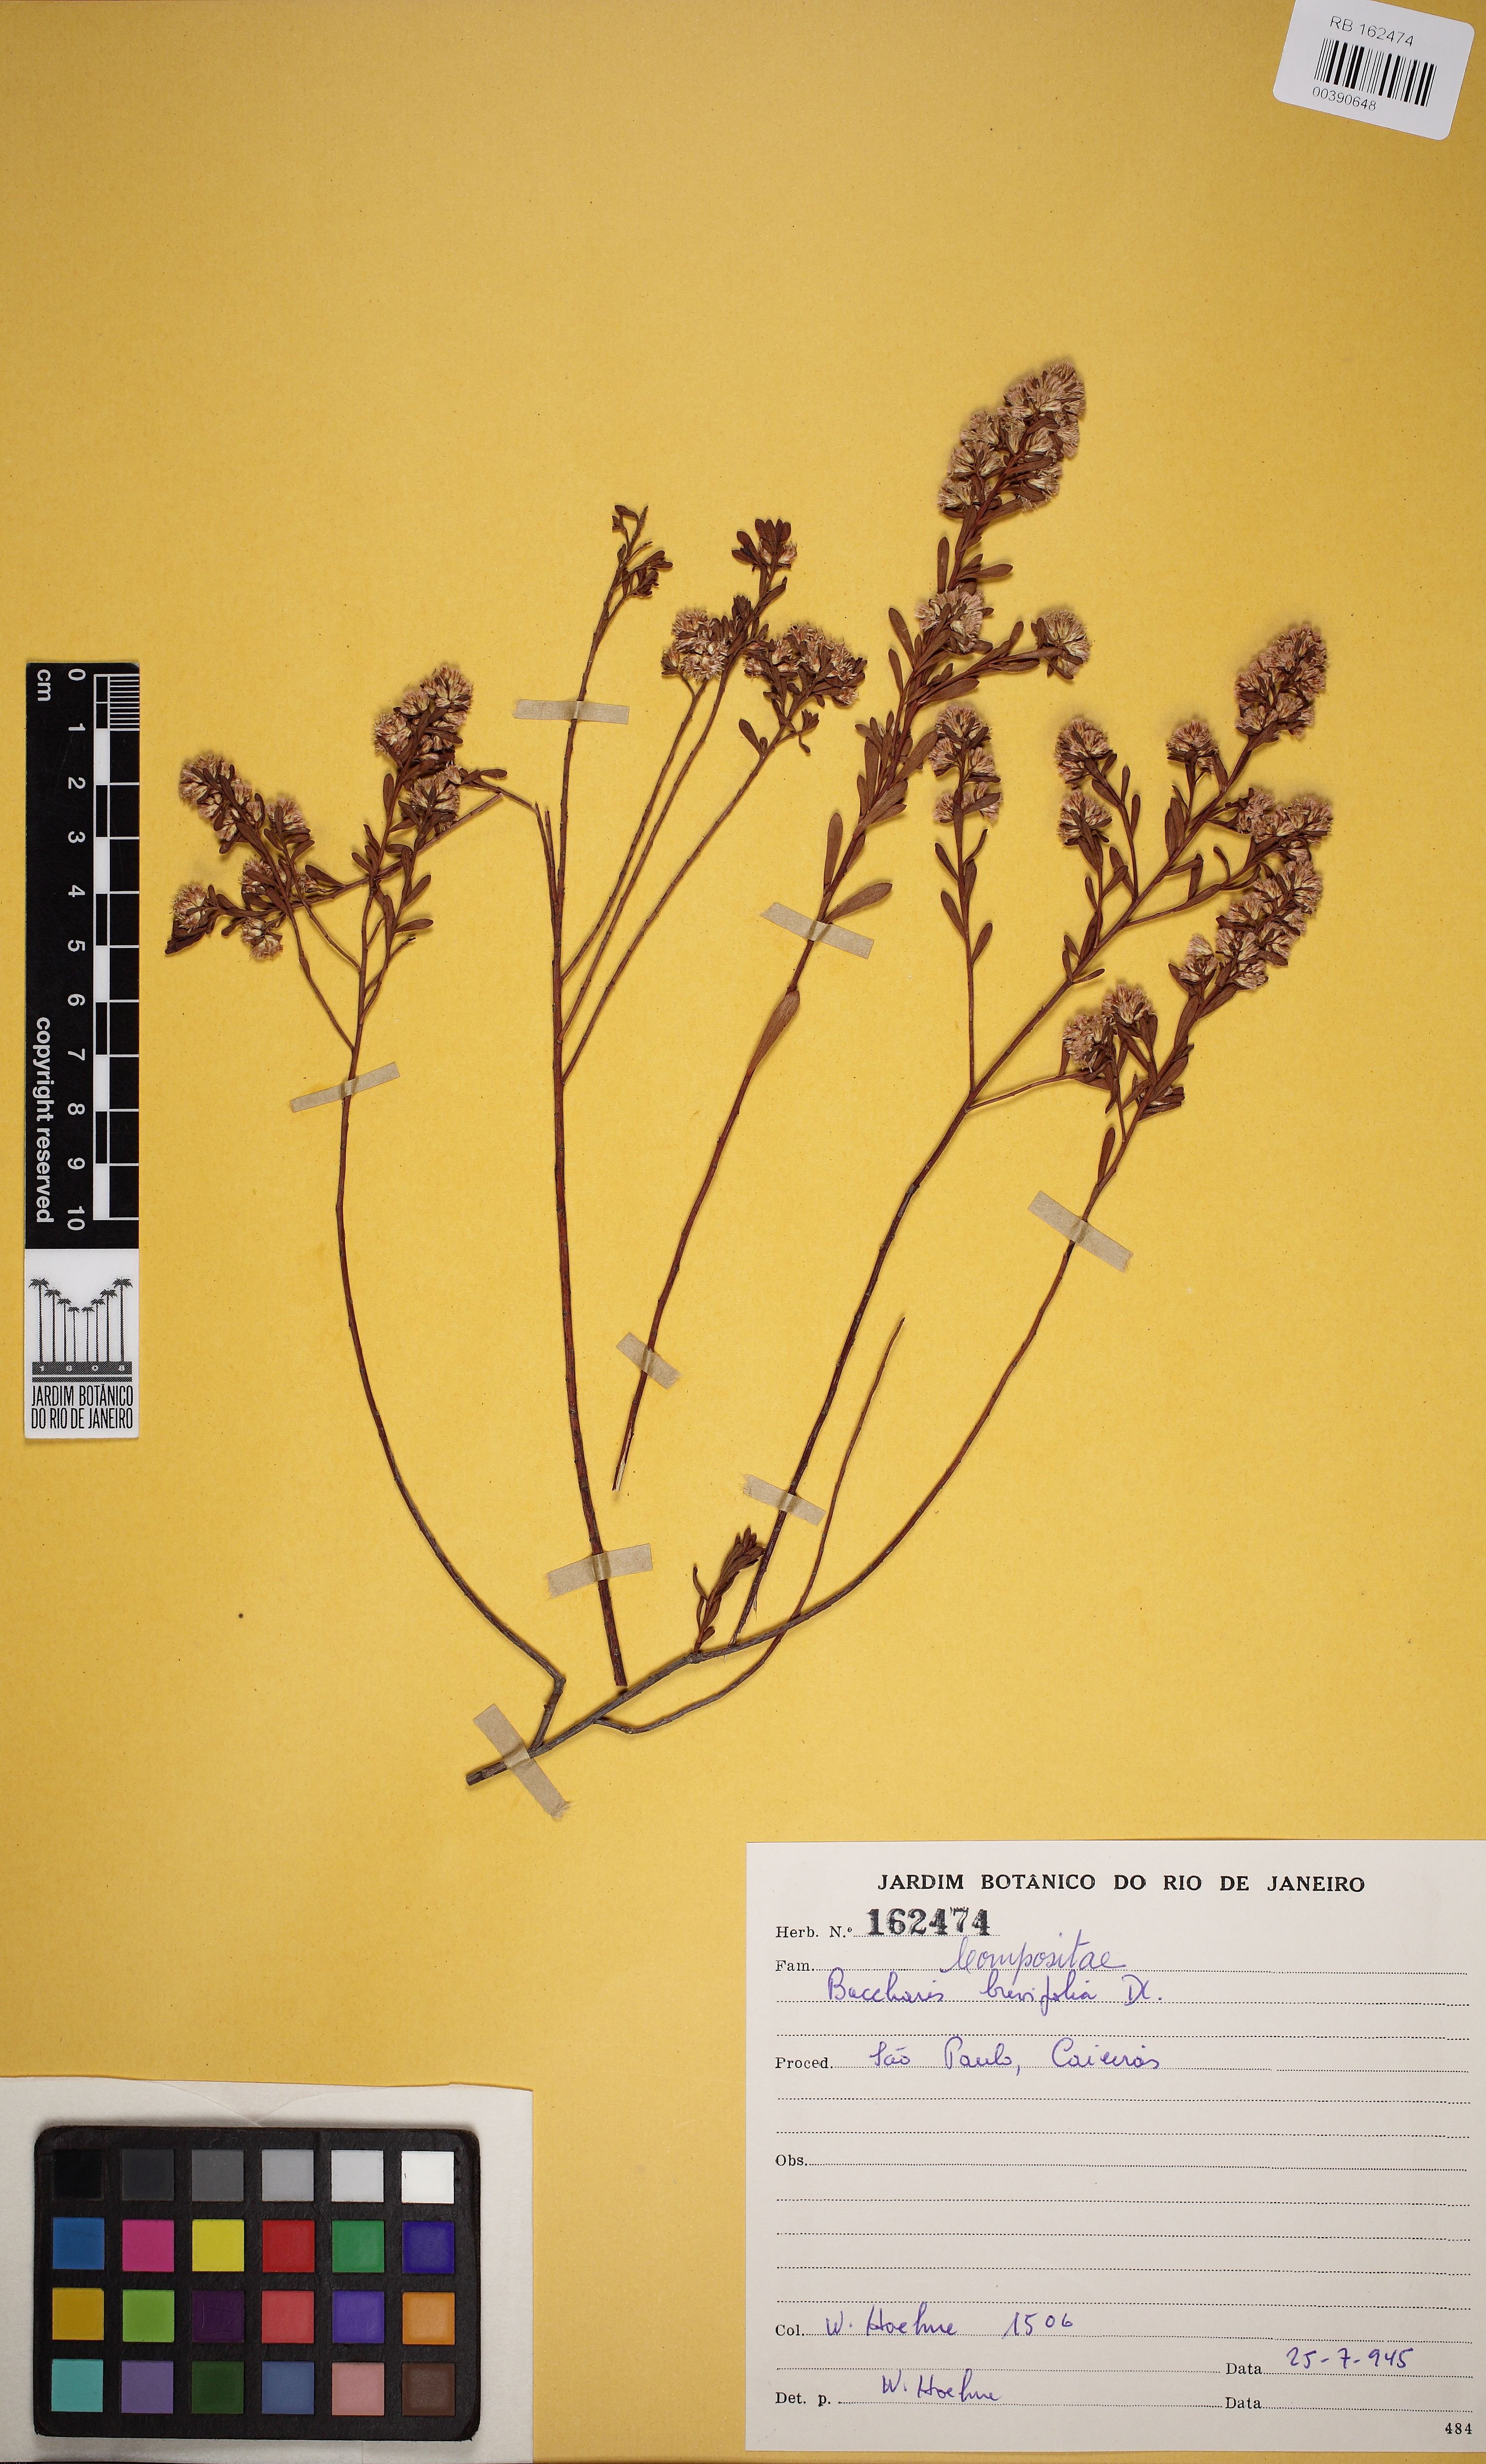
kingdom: Plantae
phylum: Tracheophyta
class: Magnoliopsida
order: Asterales
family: Asteraceae
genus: Baccharis
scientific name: Baccharis brevifolia
